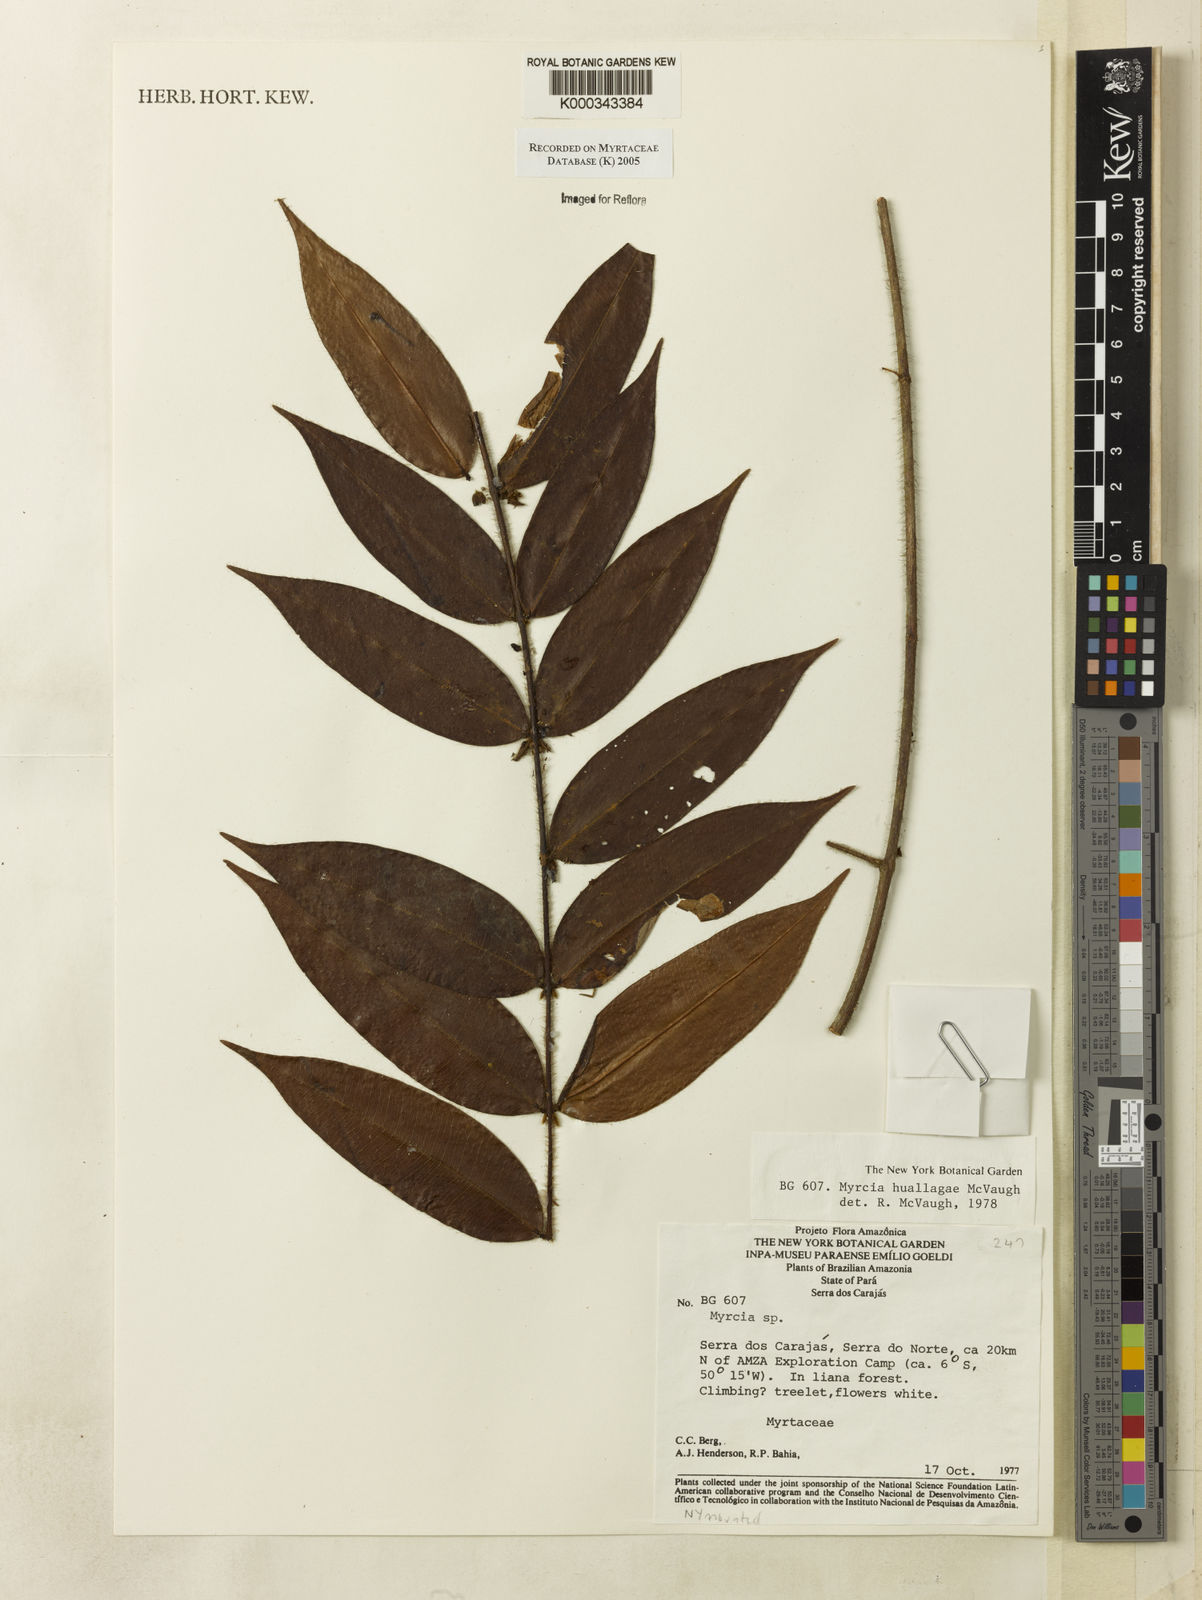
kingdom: Plantae
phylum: Tracheophyta
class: Magnoliopsida
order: Myrtales
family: Myrtaceae
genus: Myrcia
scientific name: Myrcia huallagae
